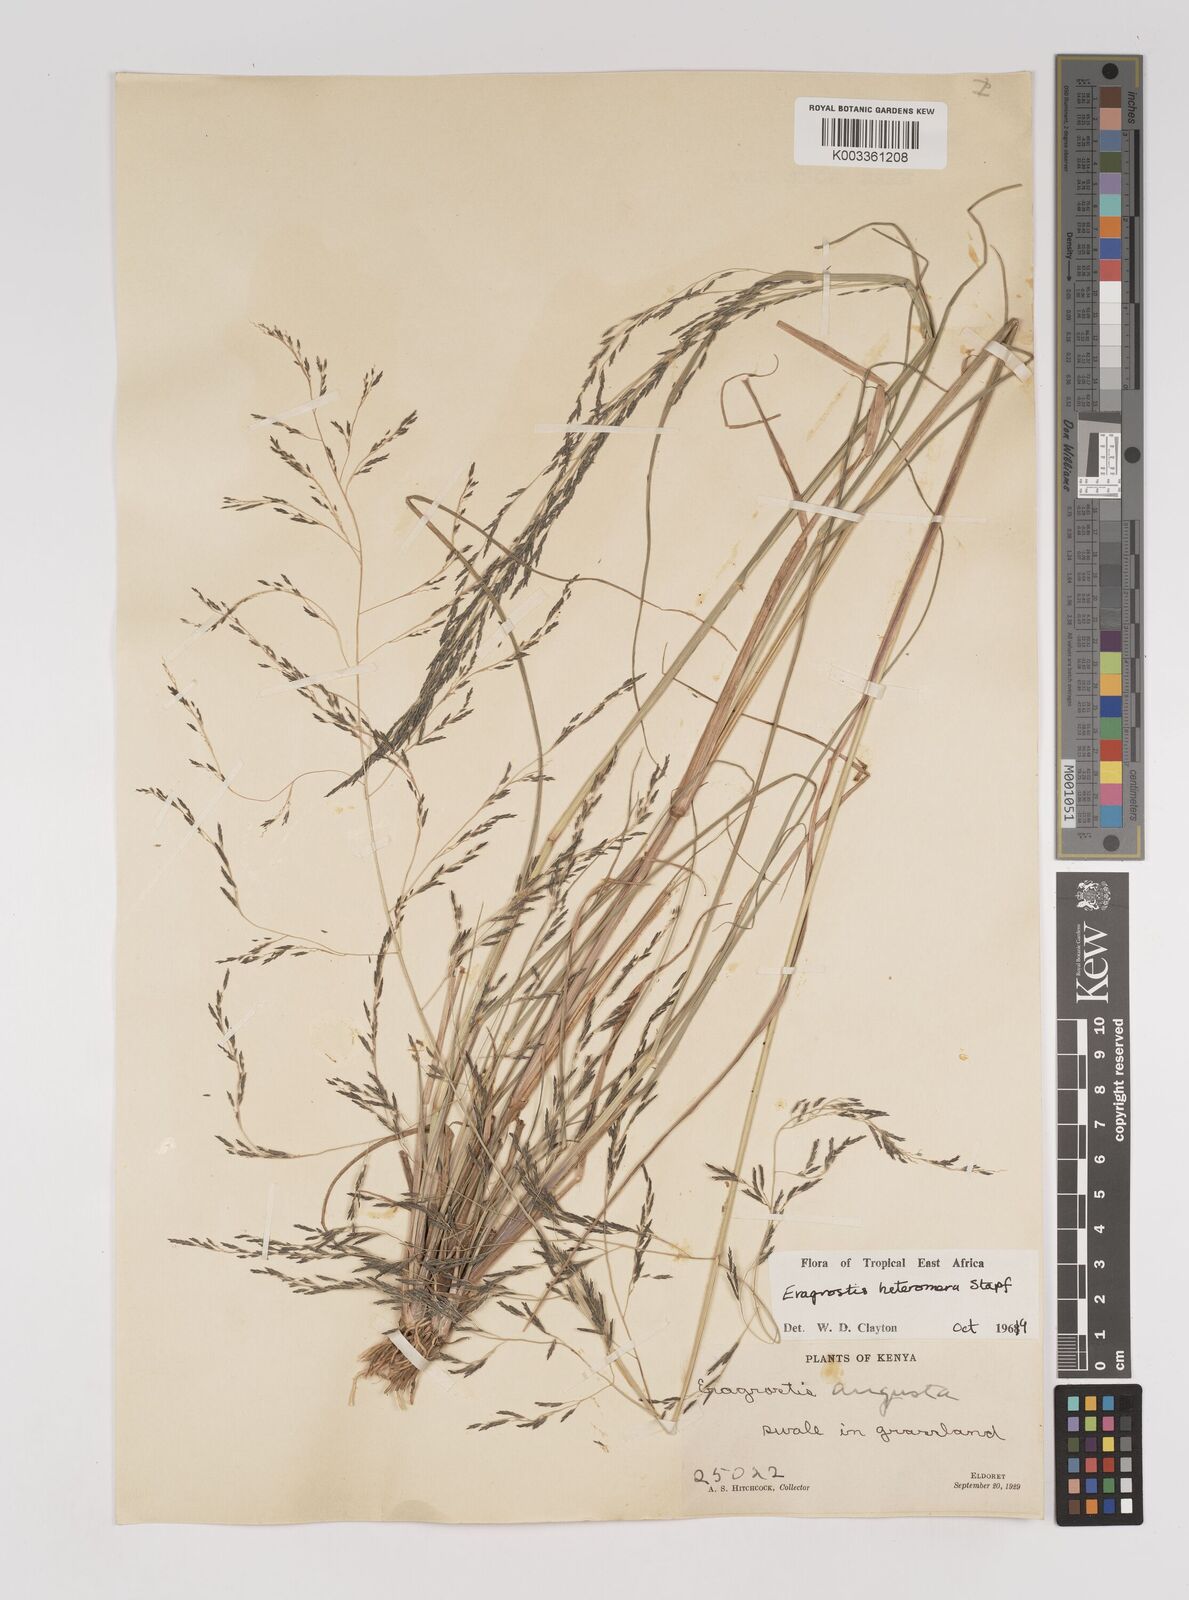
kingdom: Plantae
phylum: Tracheophyta
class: Liliopsida
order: Poales
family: Poaceae
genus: Eragrostis
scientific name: Eragrostis heteromera
